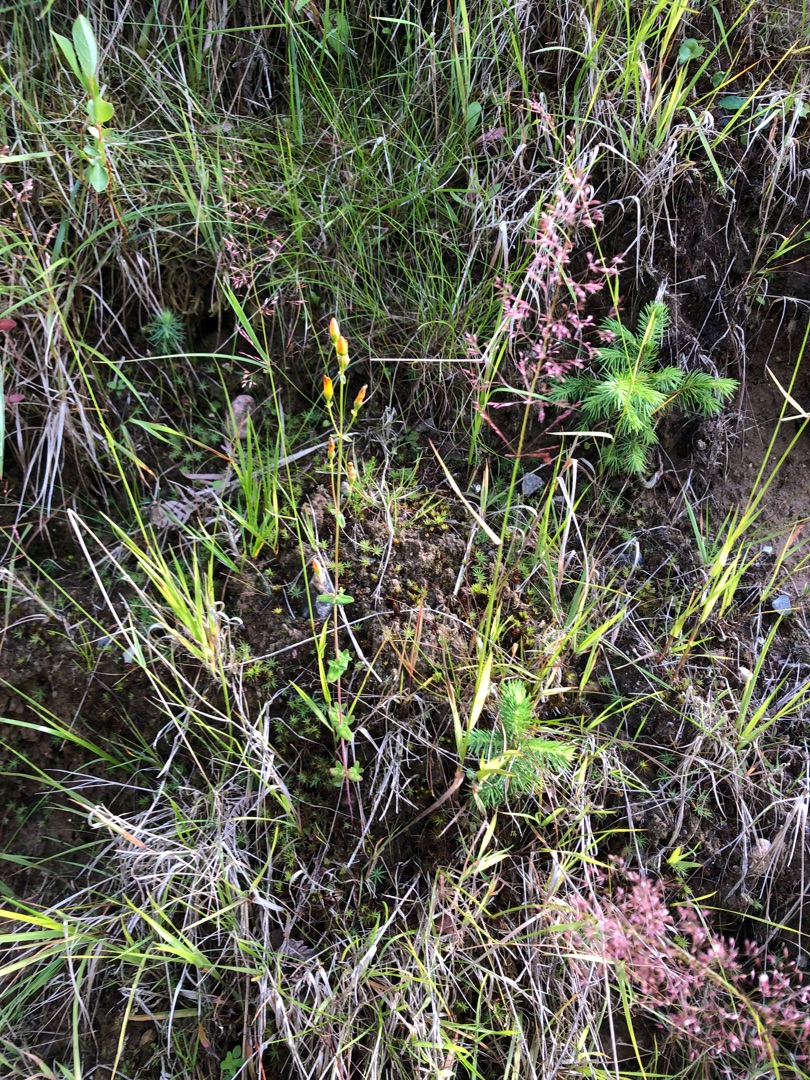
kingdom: Plantae
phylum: Tracheophyta
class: Magnoliopsida
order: Malpighiales
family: Hypericaceae
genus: Hypericum
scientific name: Hypericum pulchrum
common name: Smuk perikon
